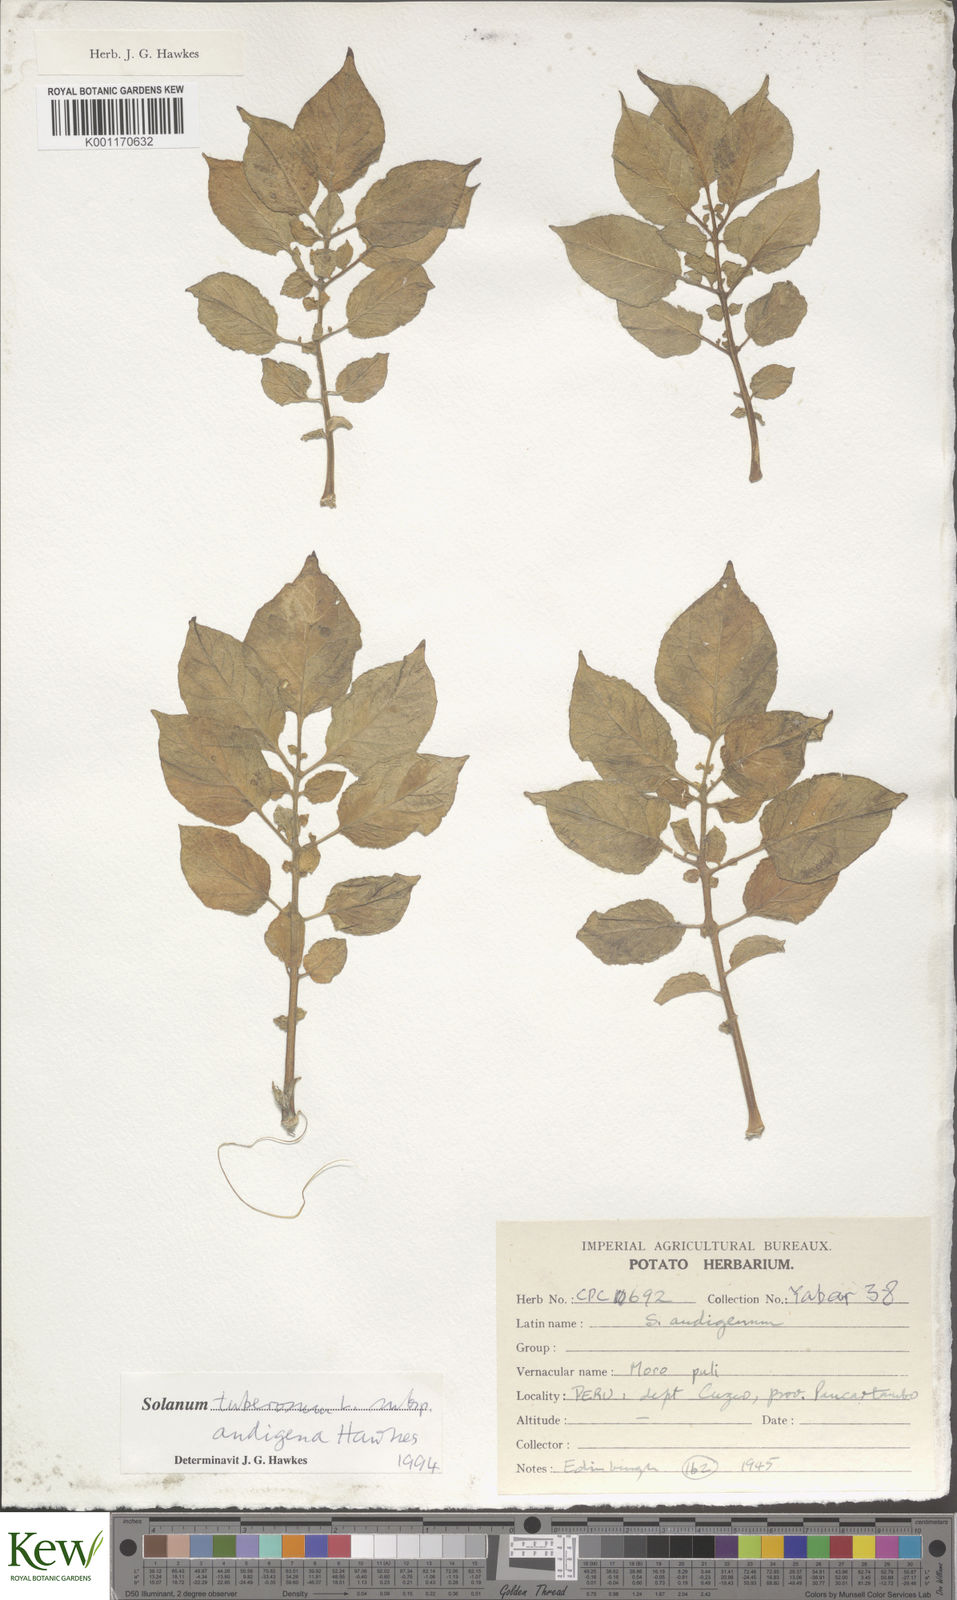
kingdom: Plantae
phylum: Tracheophyta
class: Magnoliopsida
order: Solanales
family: Solanaceae
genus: Solanum
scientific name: Solanum tuberosum
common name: Potato
